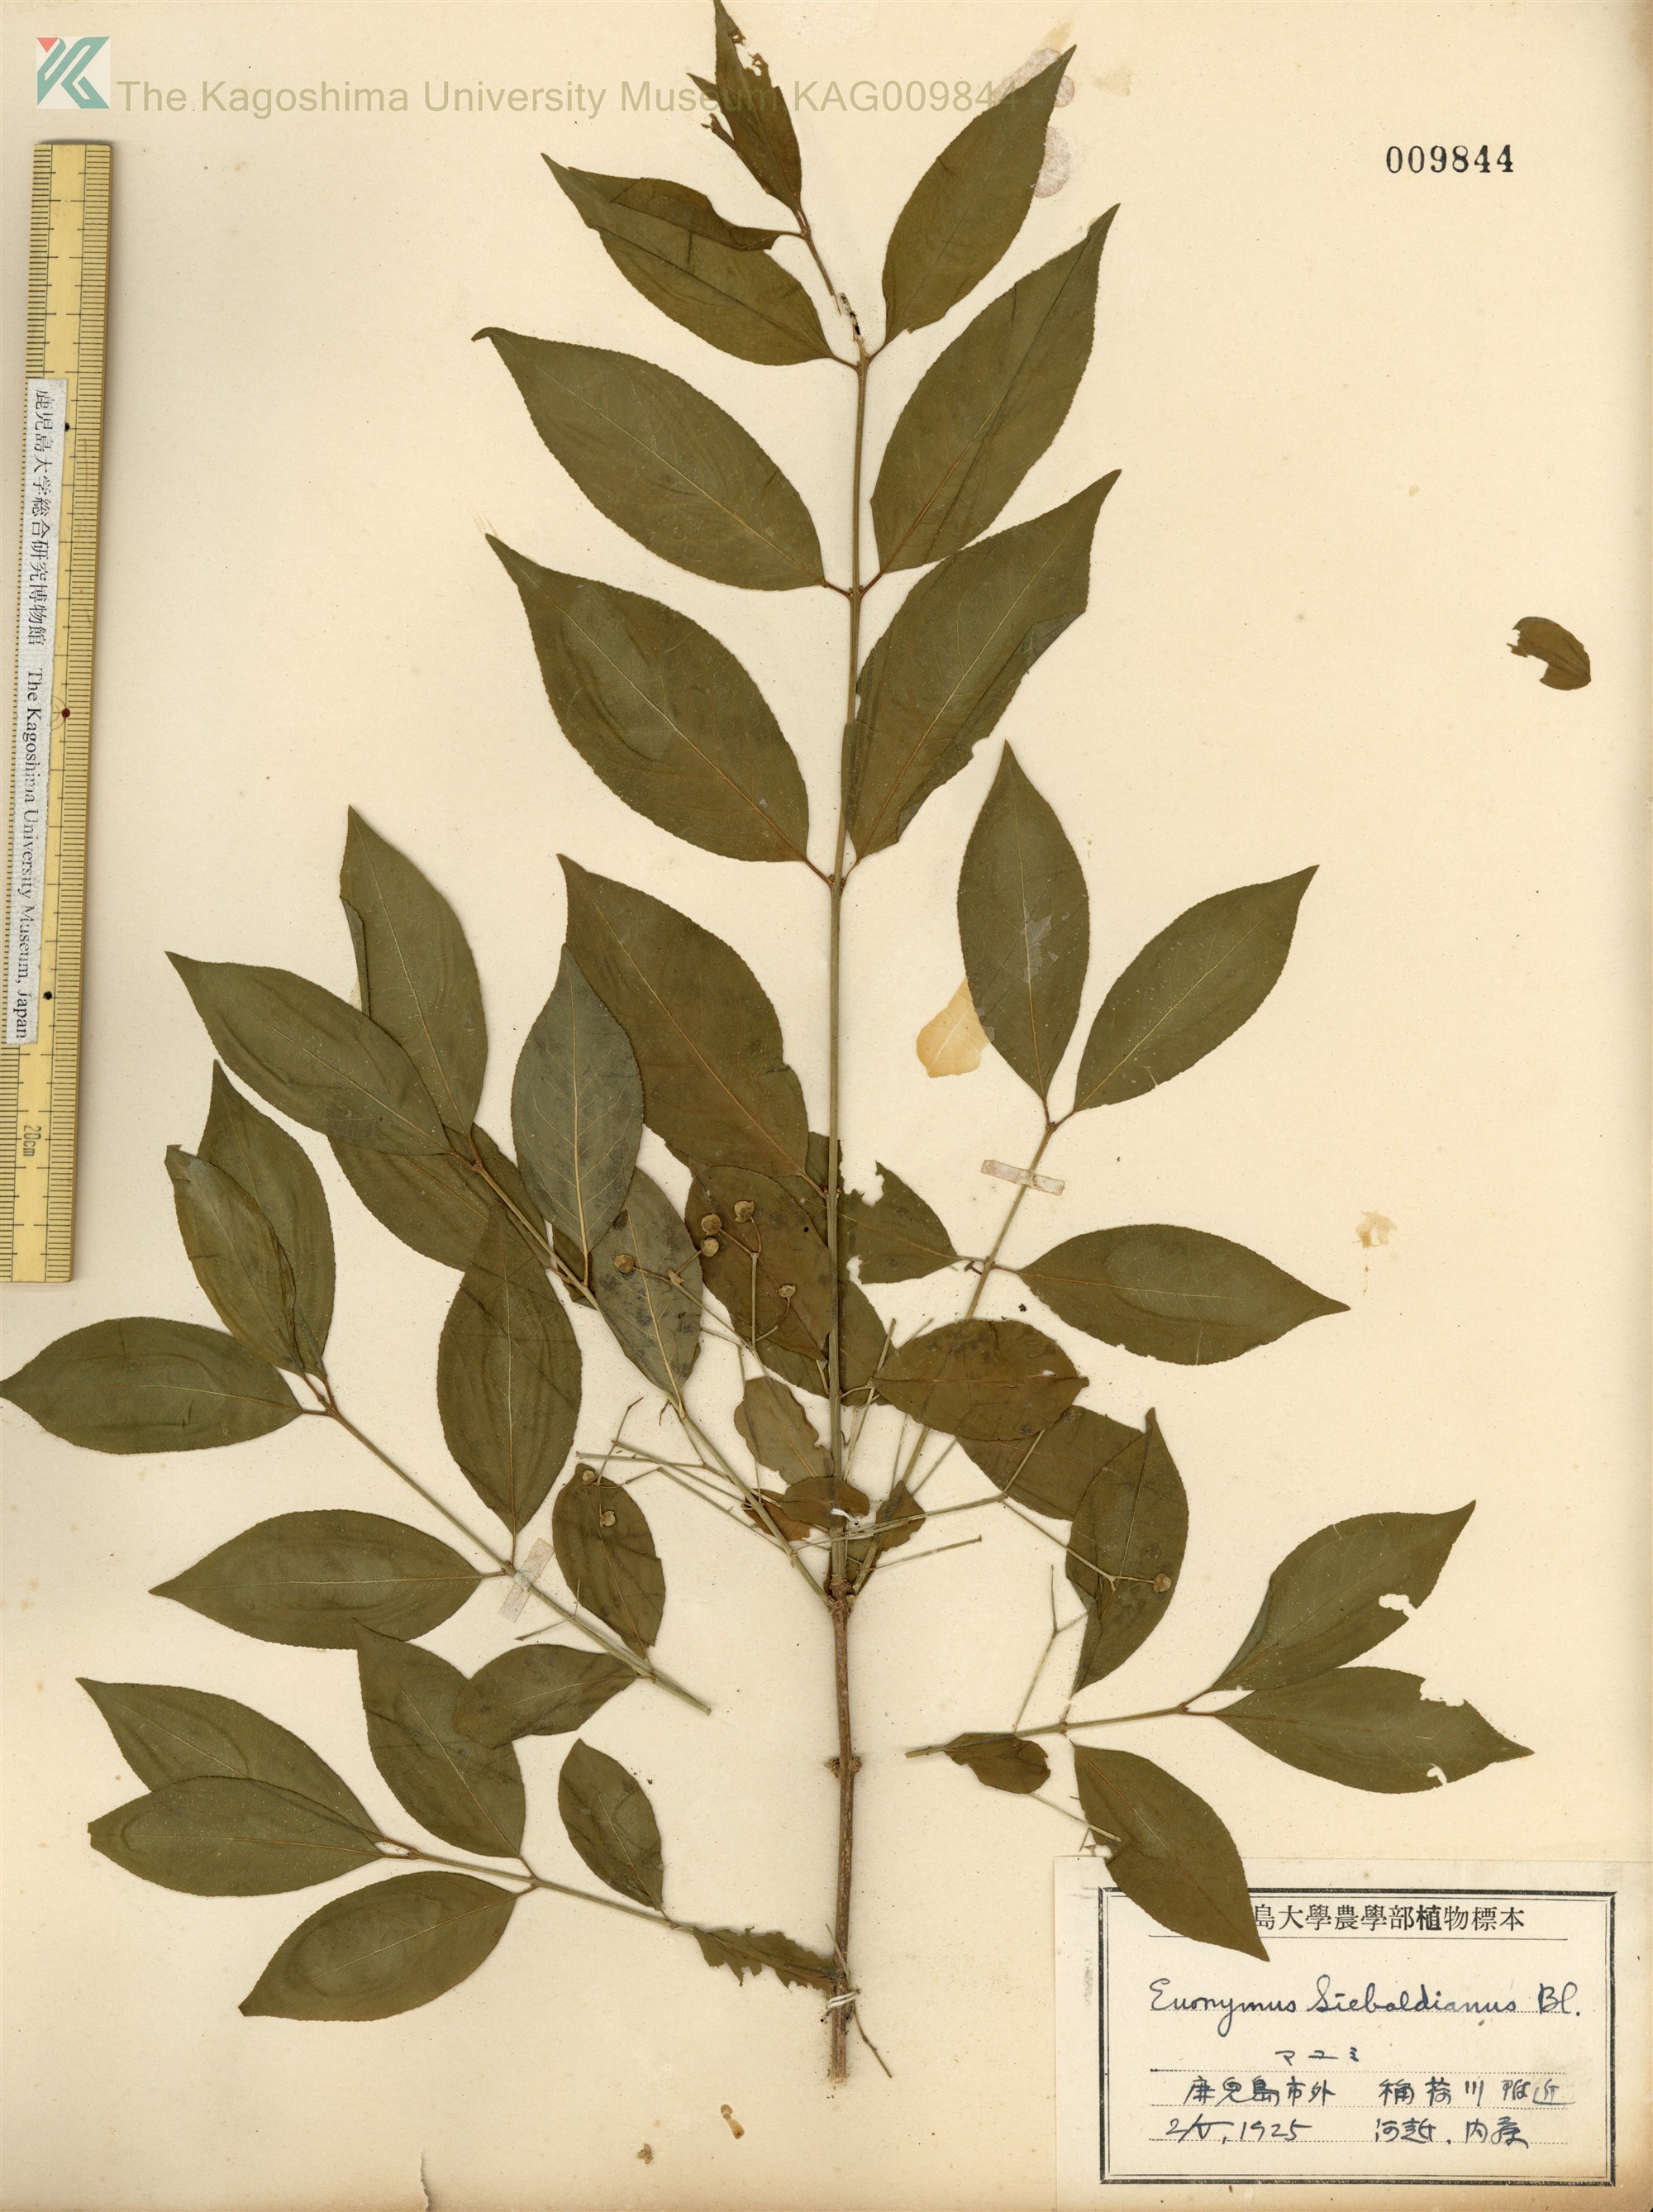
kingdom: Plantae
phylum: Tracheophyta
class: Magnoliopsida
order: Celastrales
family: Celastraceae
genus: Euonymus
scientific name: Euonymus hamiltonianus
